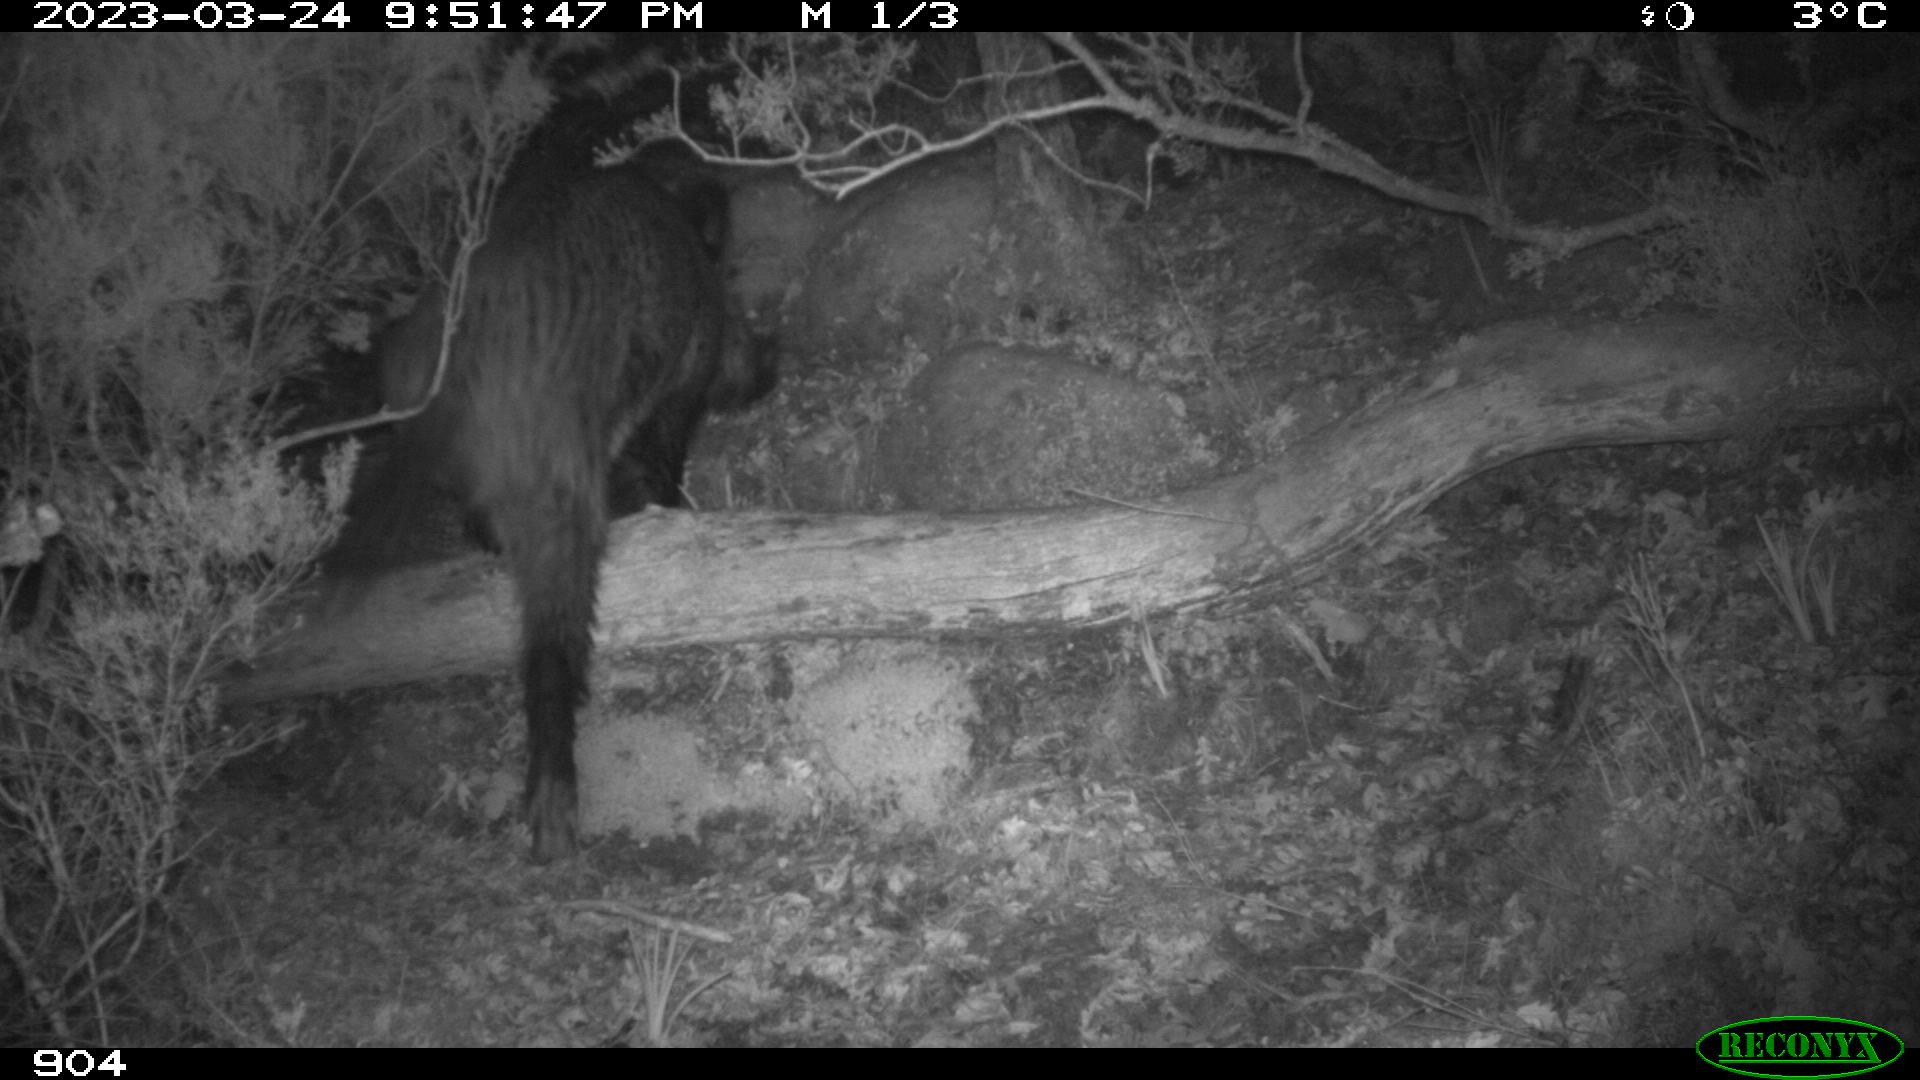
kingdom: Animalia
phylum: Chordata
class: Mammalia
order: Artiodactyla
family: Suidae
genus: Sus
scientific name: Sus scrofa
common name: Wild boar
